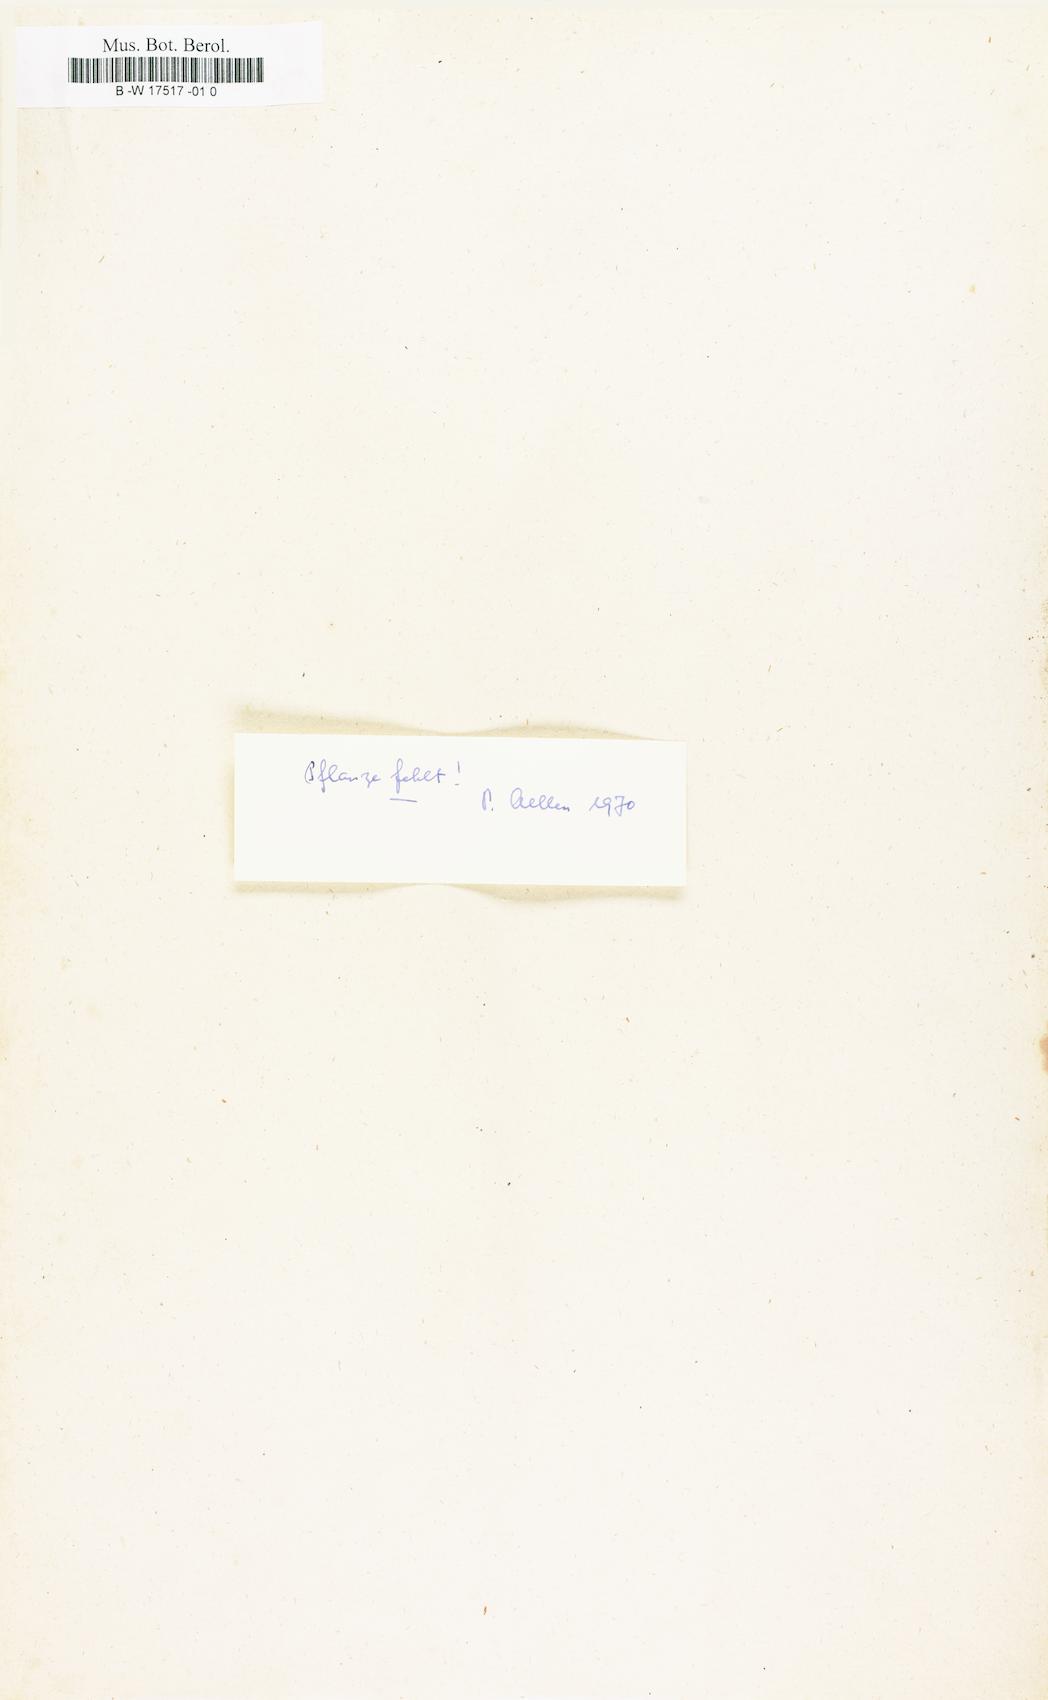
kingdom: Plantae
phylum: Tracheophyta
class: Magnoliopsida
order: Caryophyllales
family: Amaranthaceae
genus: Amaranthus
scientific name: Amaranthus cruentus
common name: Purple amaranth
